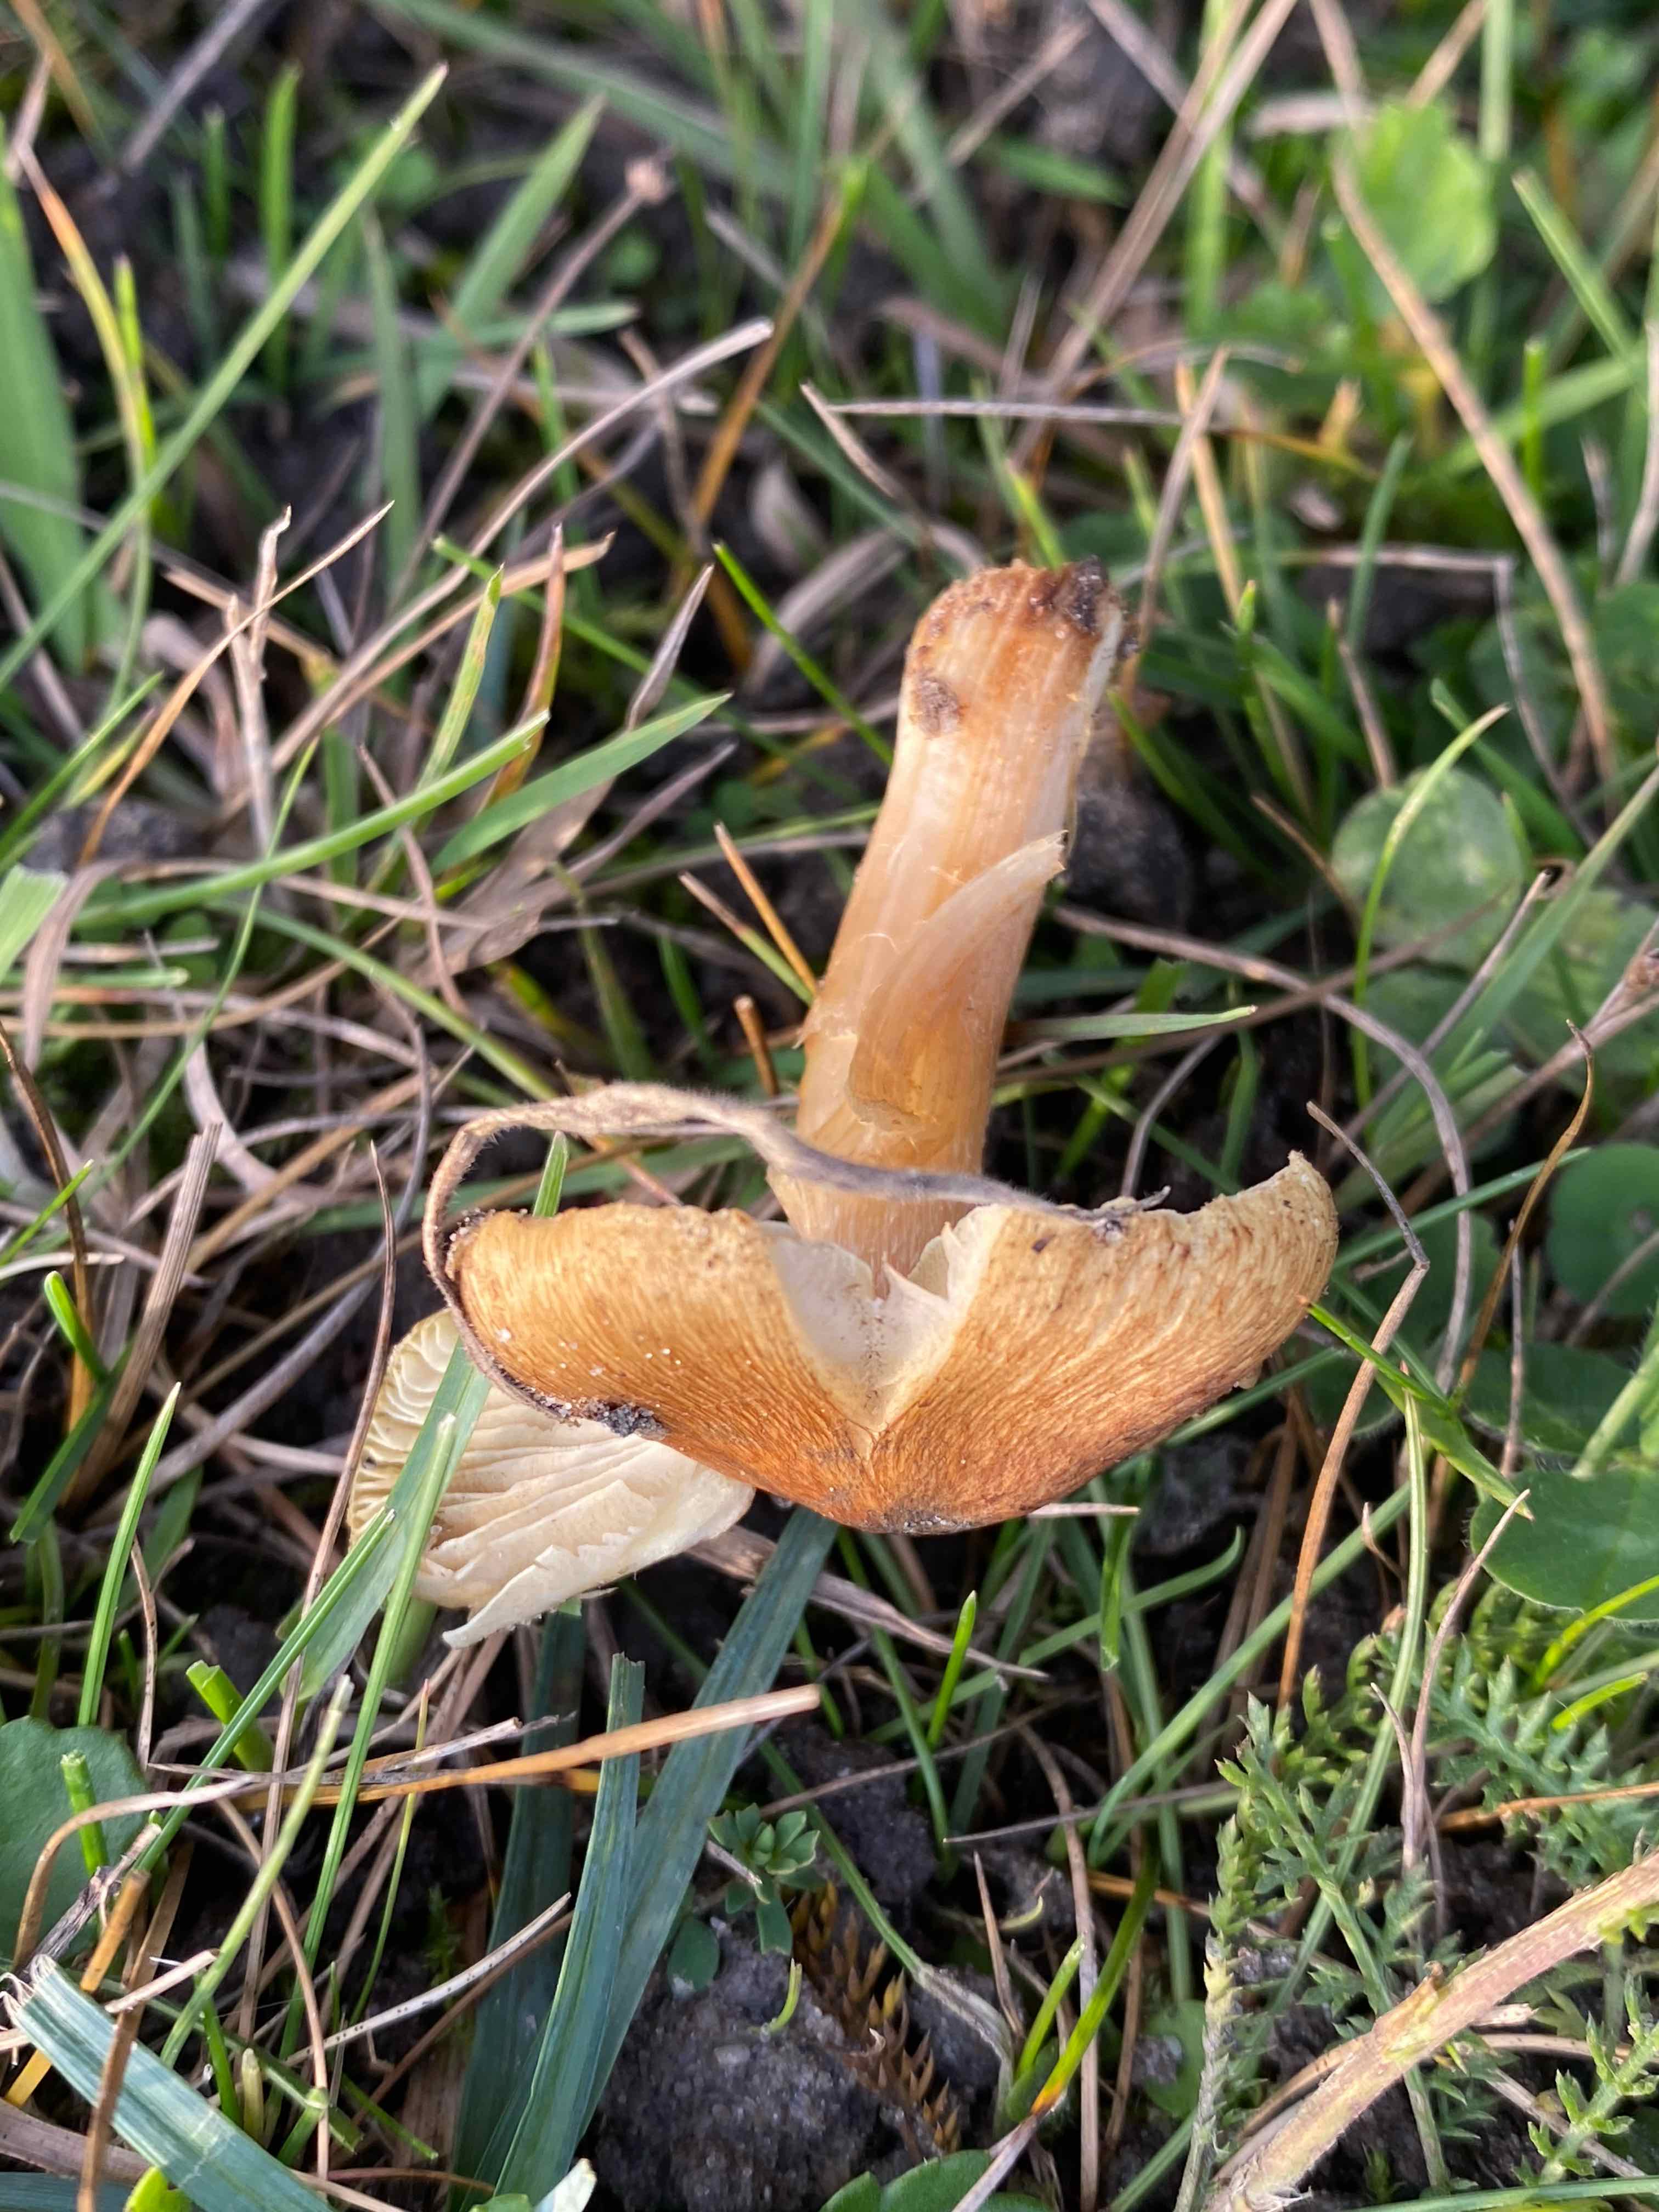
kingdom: Fungi
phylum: Basidiomycota
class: Agaricomycetes
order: Agaricales
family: Inocybaceae
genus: Inocybe
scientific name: Inocybe
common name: trævlhat
